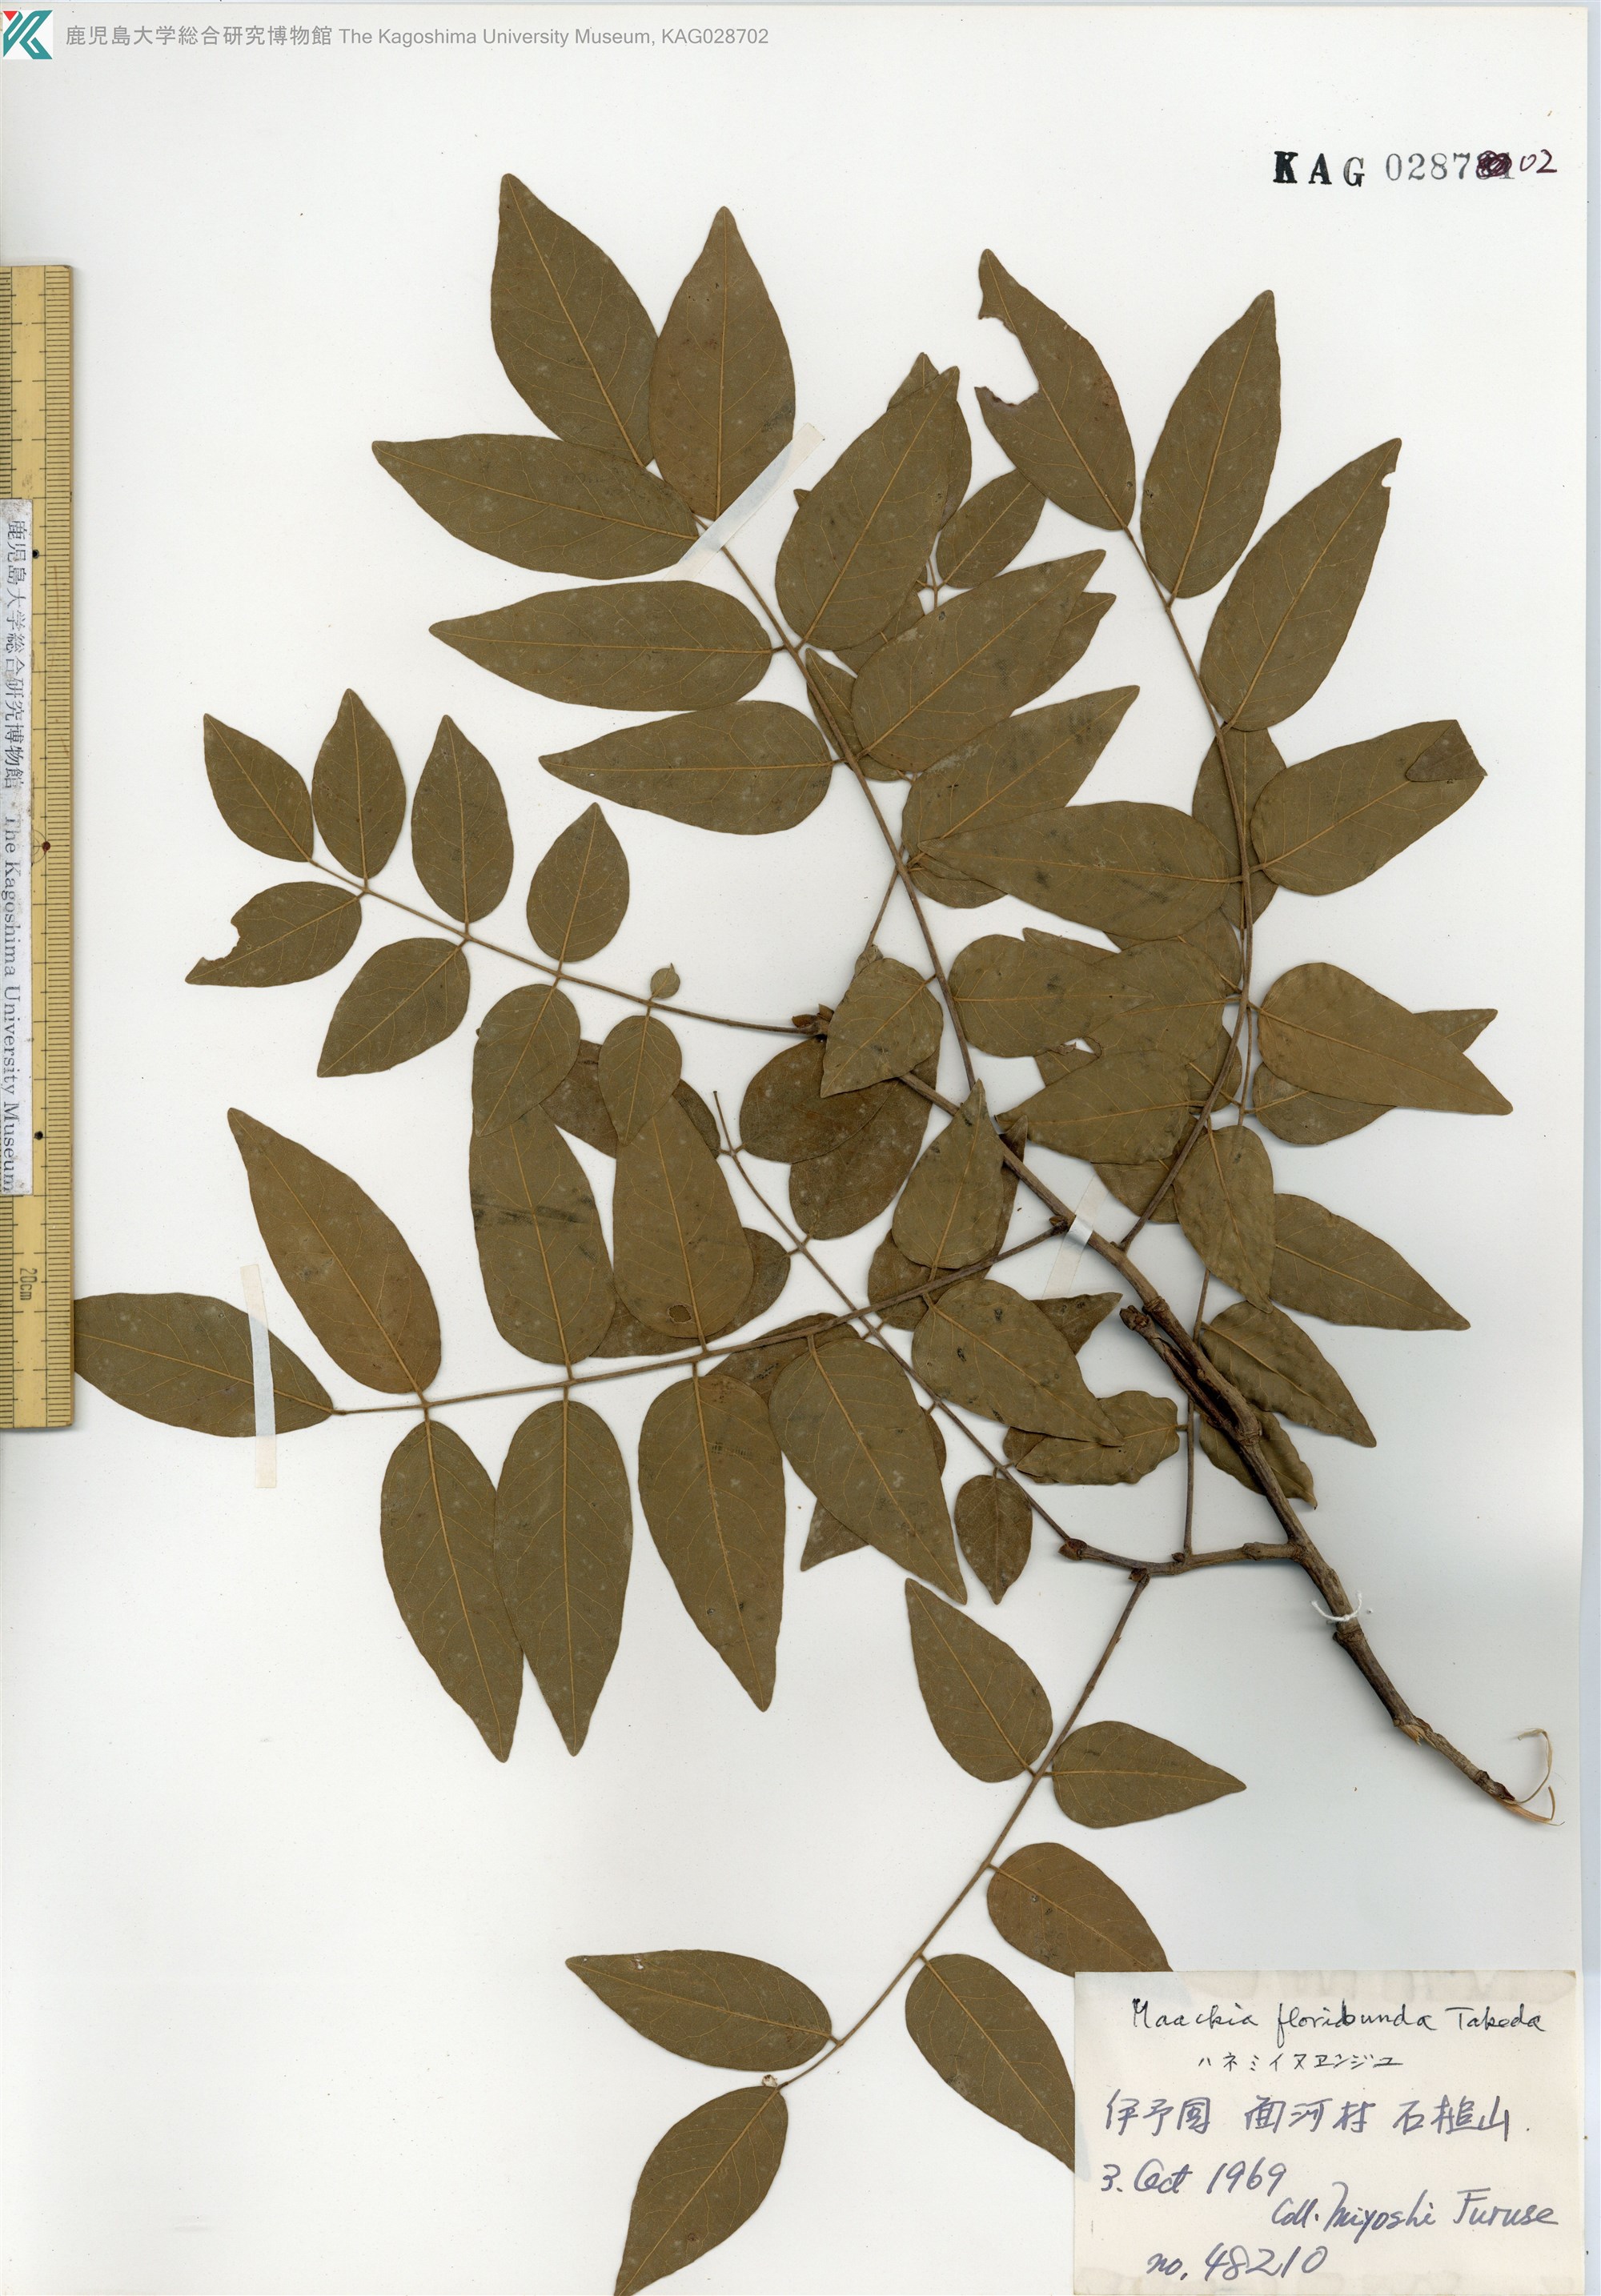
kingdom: Plantae
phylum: Tracheophyta
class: Magnoliopsida
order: Fabales
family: Fabaceae
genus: Maackia
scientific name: Maackia amurensis
